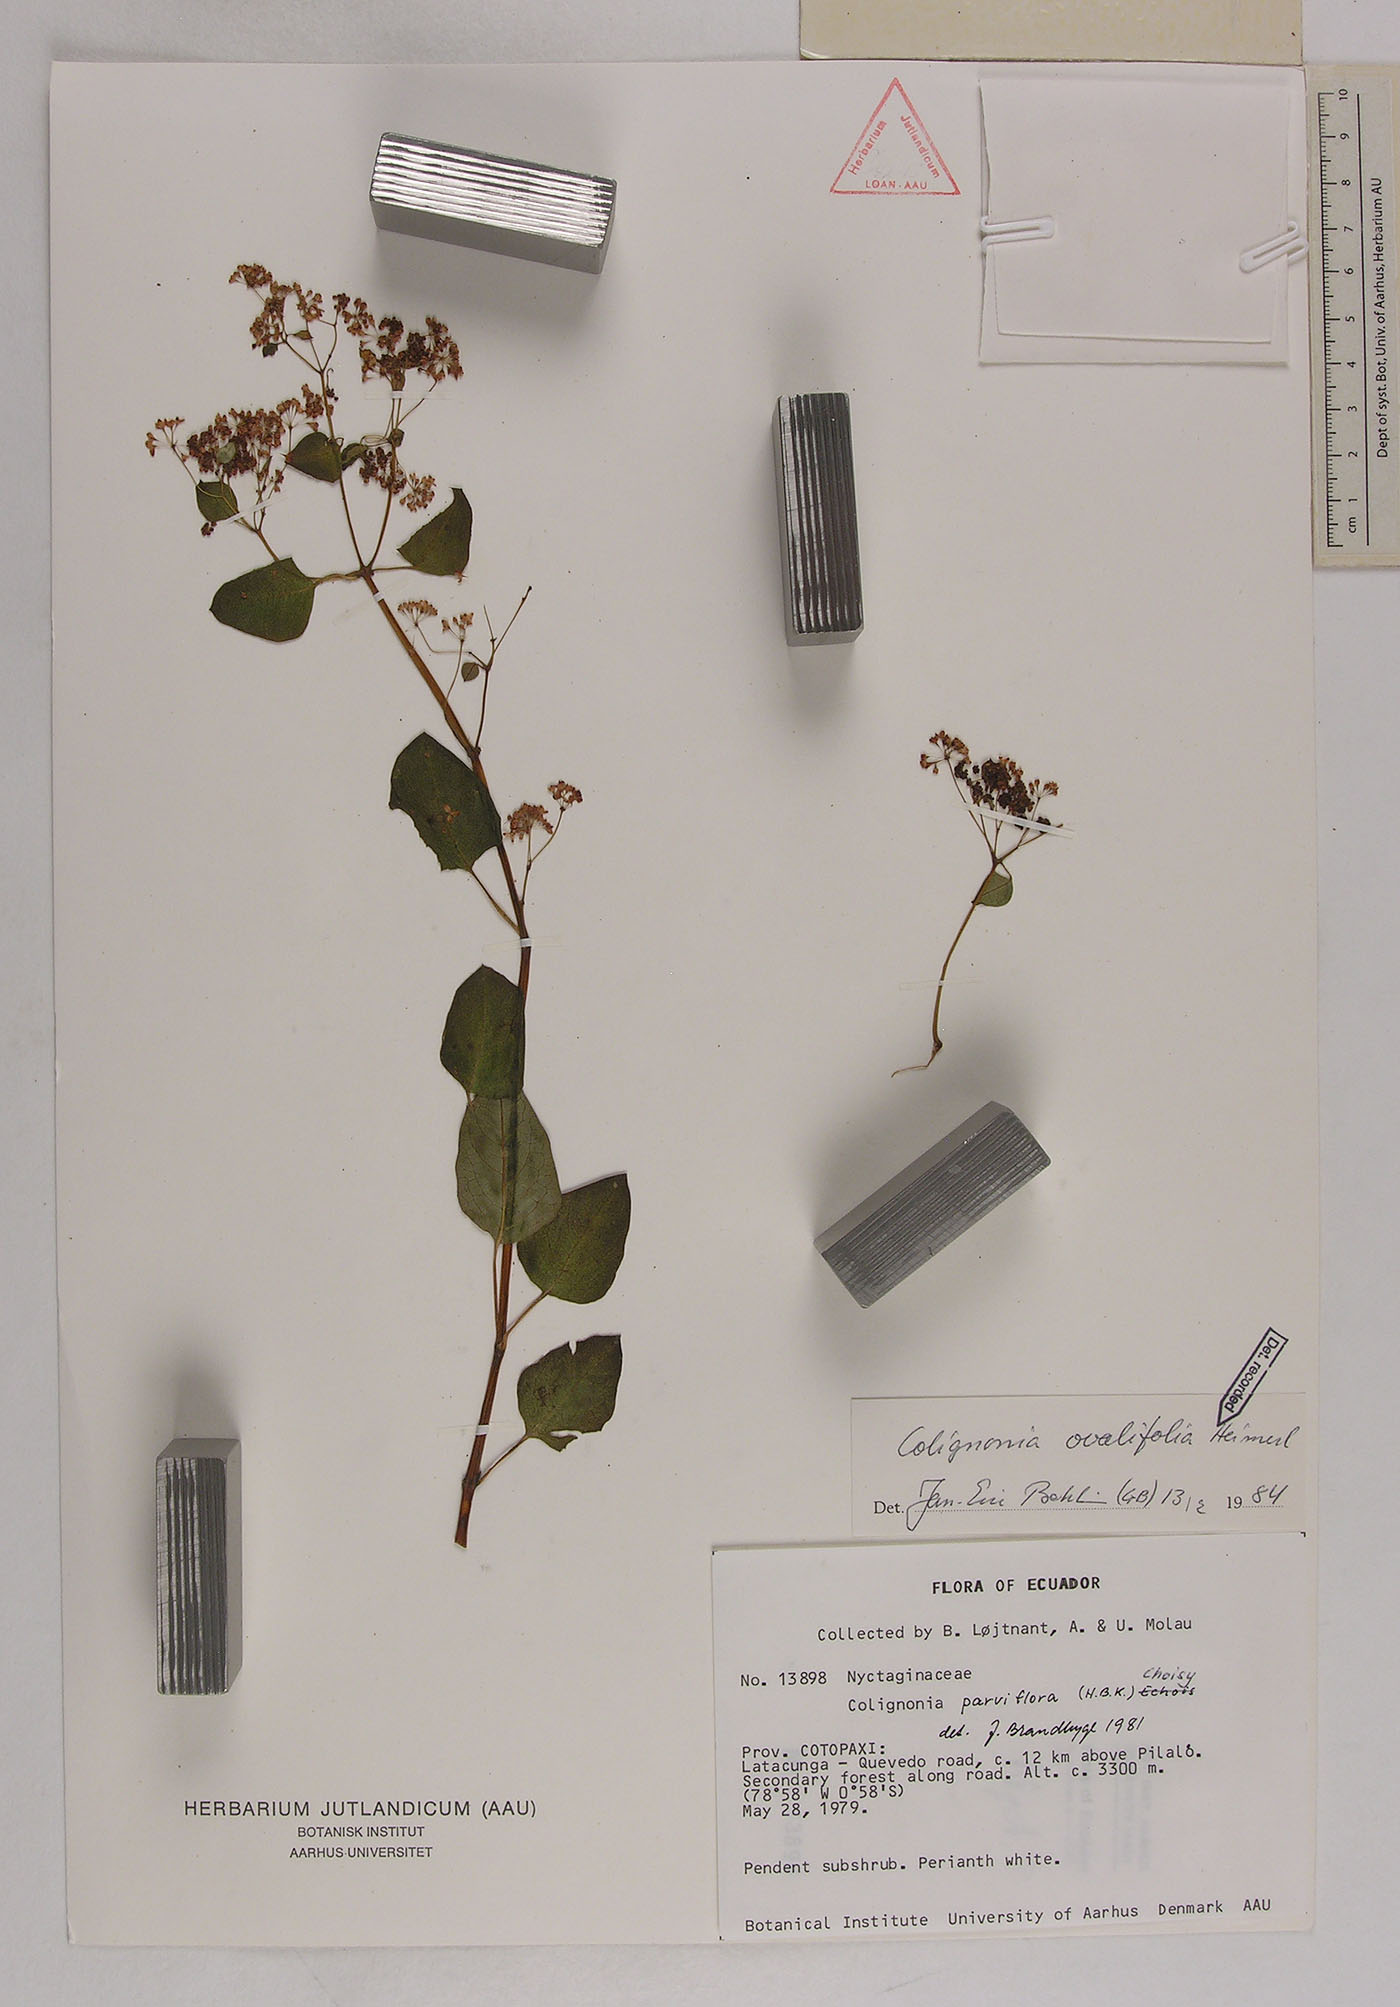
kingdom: Plantae
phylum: Tracheophyta
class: Magnoliopsida
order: Caryophyllales
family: Nyctaginaceae
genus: Colignonia
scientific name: Colignonia ovalifolia
